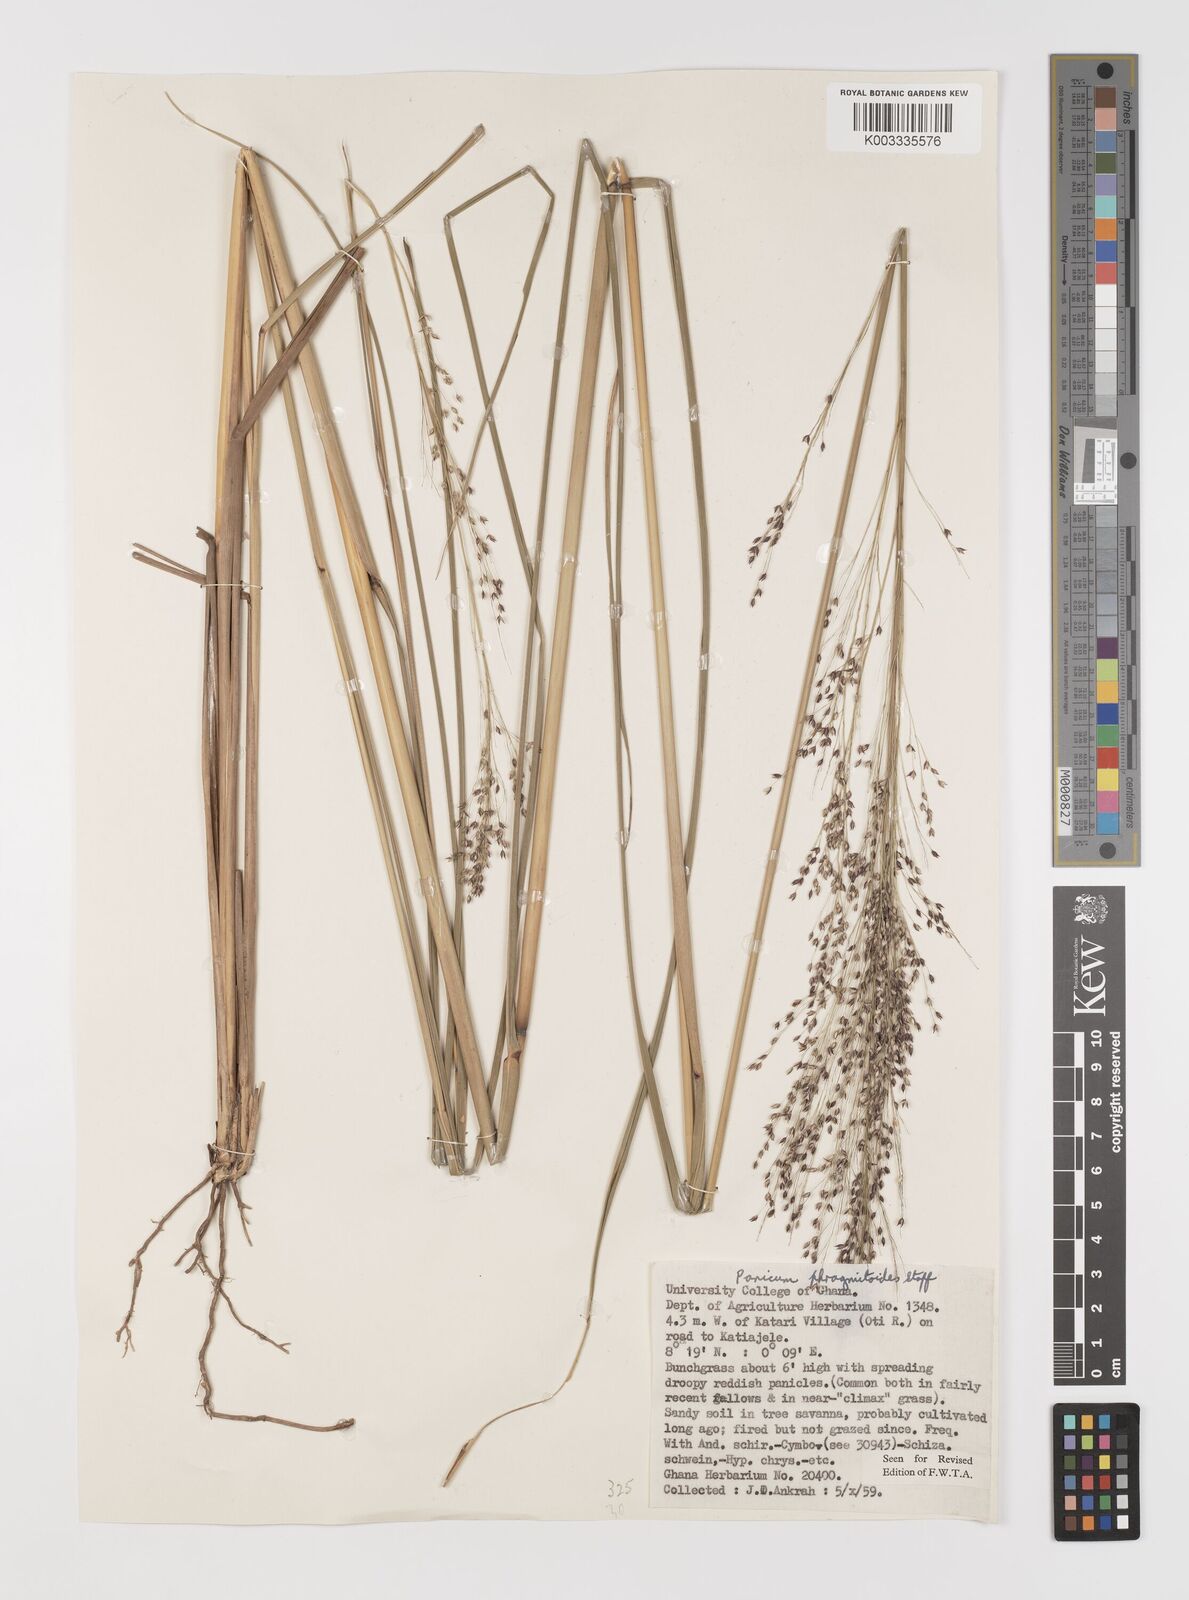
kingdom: Plantae
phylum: Tracheophyta
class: Liliopsida
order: Poales
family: Poaceae
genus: Panicum
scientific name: Panicum phragmitoides
